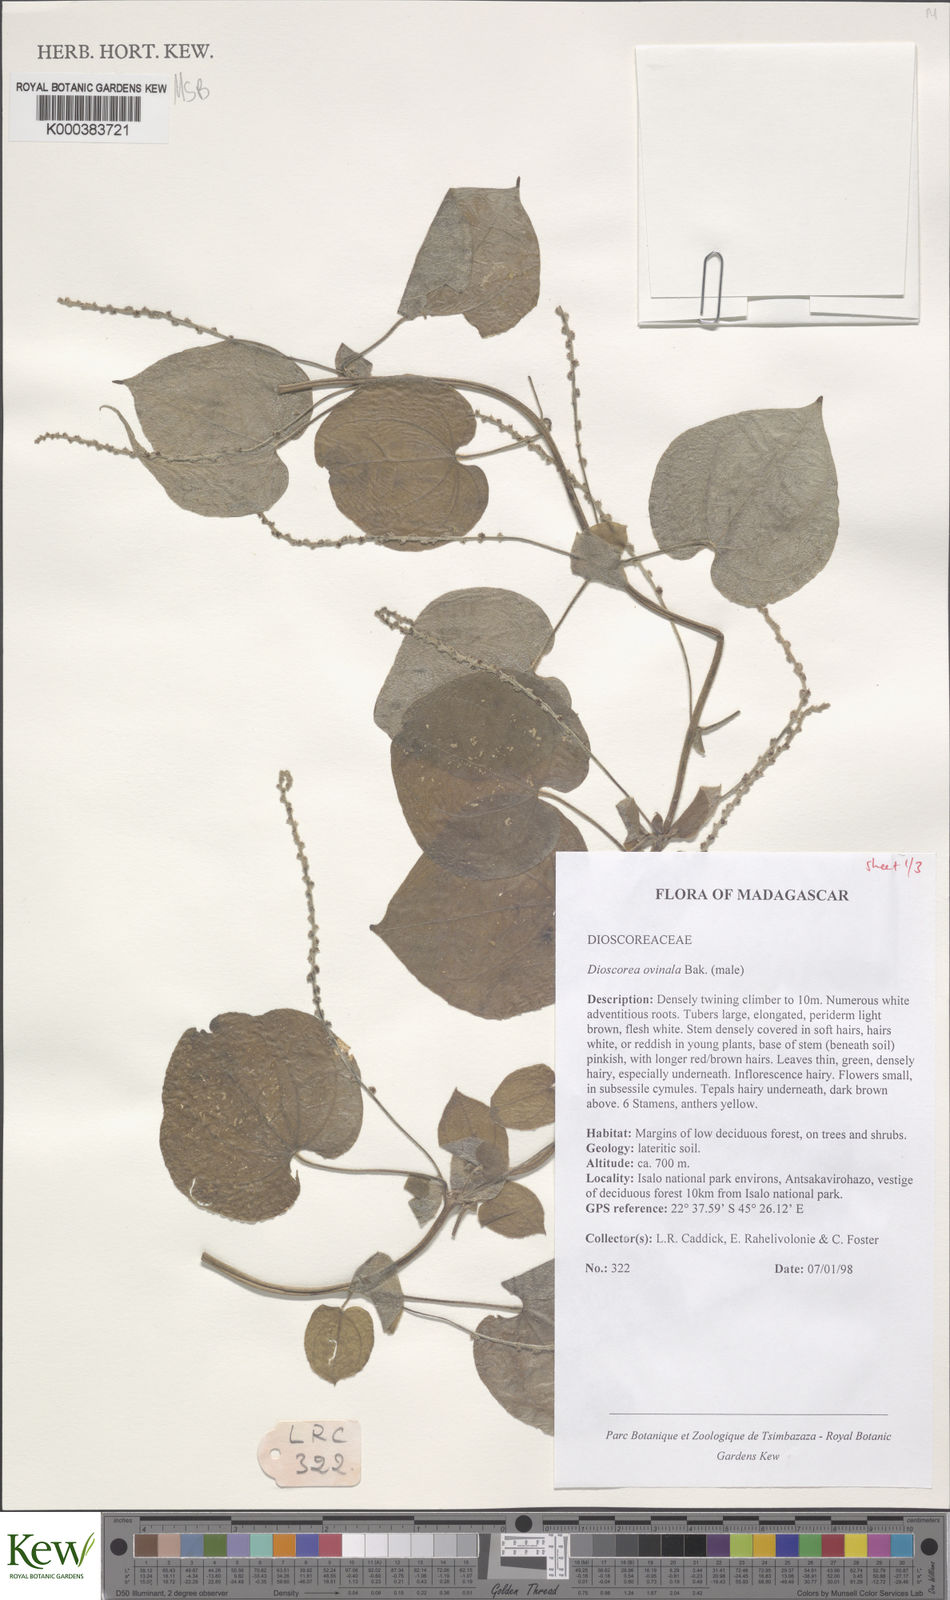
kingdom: Plantae
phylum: Tracheophyta
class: Liliopsida
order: Dioscoreales
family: Dioscoreaceae
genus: Dioscorea
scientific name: Dioscorea ovinala
